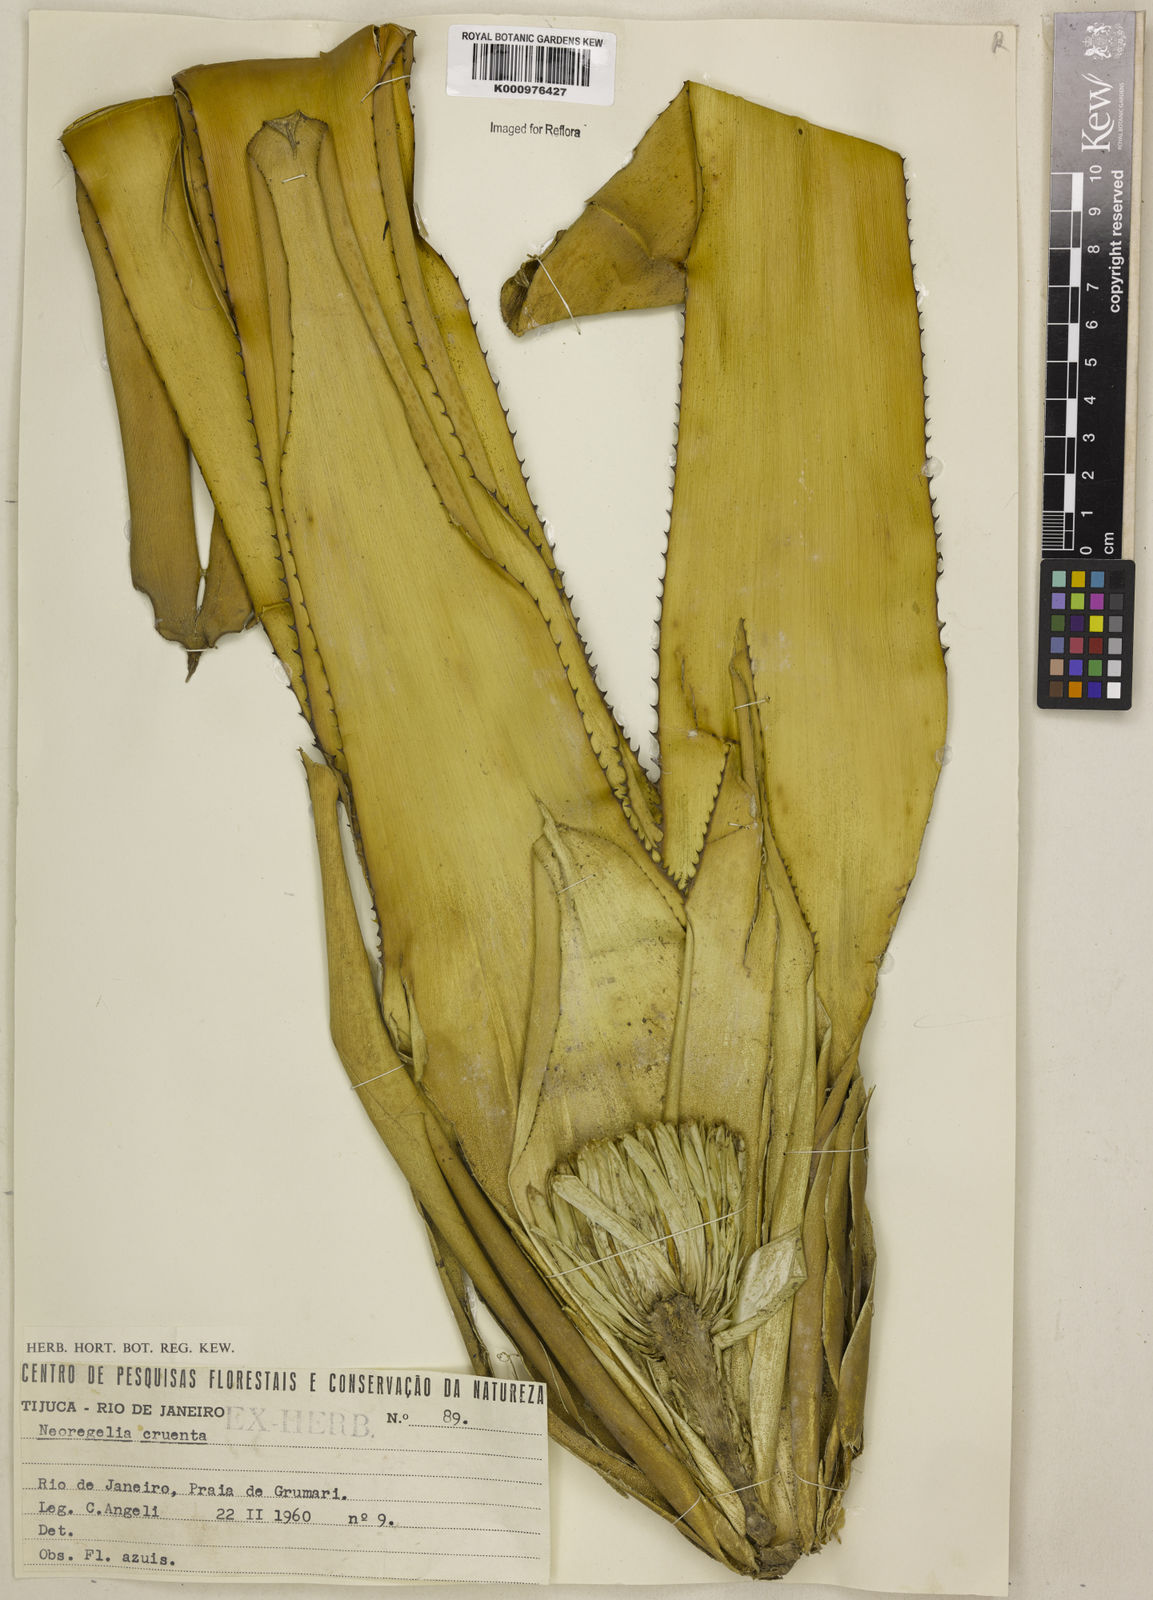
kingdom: Plantae
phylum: Tracheophyta
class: Liliopsida
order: Poales
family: Bromeliaceae
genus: Neoregelia
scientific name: Neoregelia cruenta
